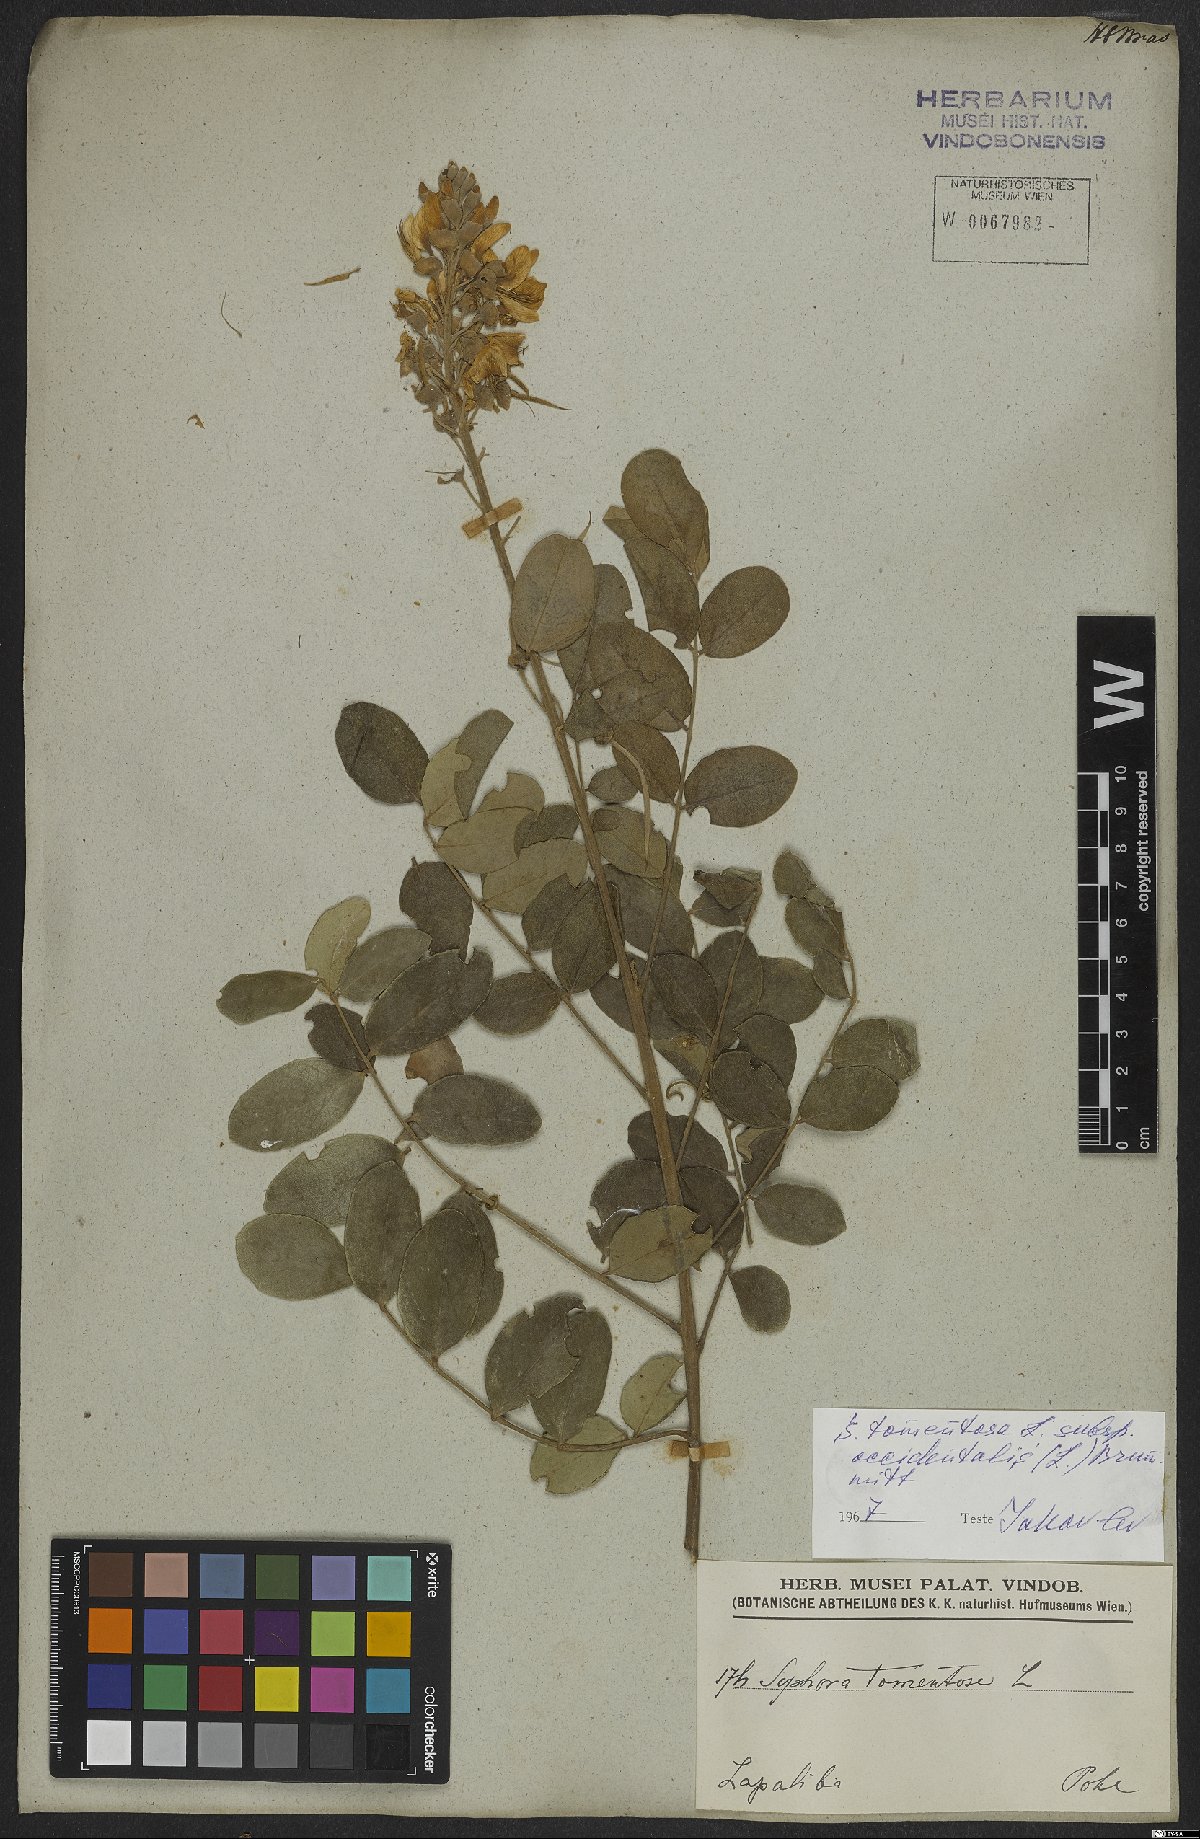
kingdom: Plantae
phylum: Tracheophyta
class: Magnoliopsida
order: Fabales
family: Fabaceae
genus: Sophora
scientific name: Sophora tomentosa
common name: Yellow necklacepod
